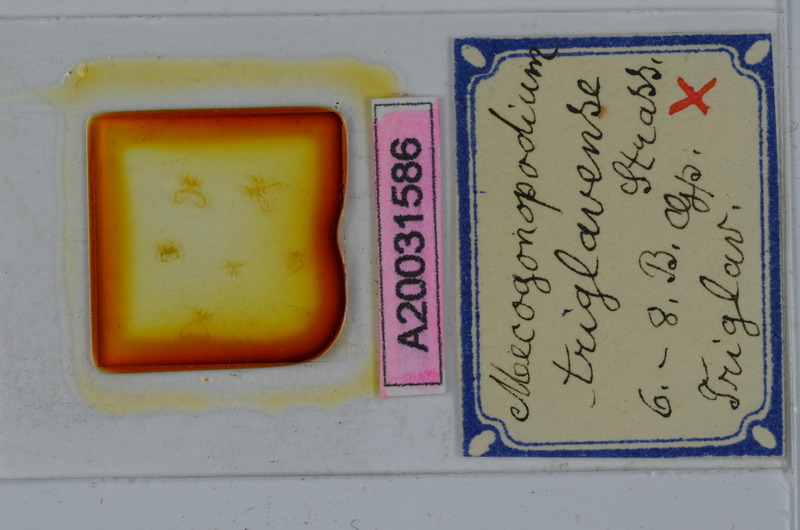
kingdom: Animalia
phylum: Arthropoda
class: Diplopoda
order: Chordeumatida
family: Attemsiidae
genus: Mecogonopodium
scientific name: Mecogonopodium
